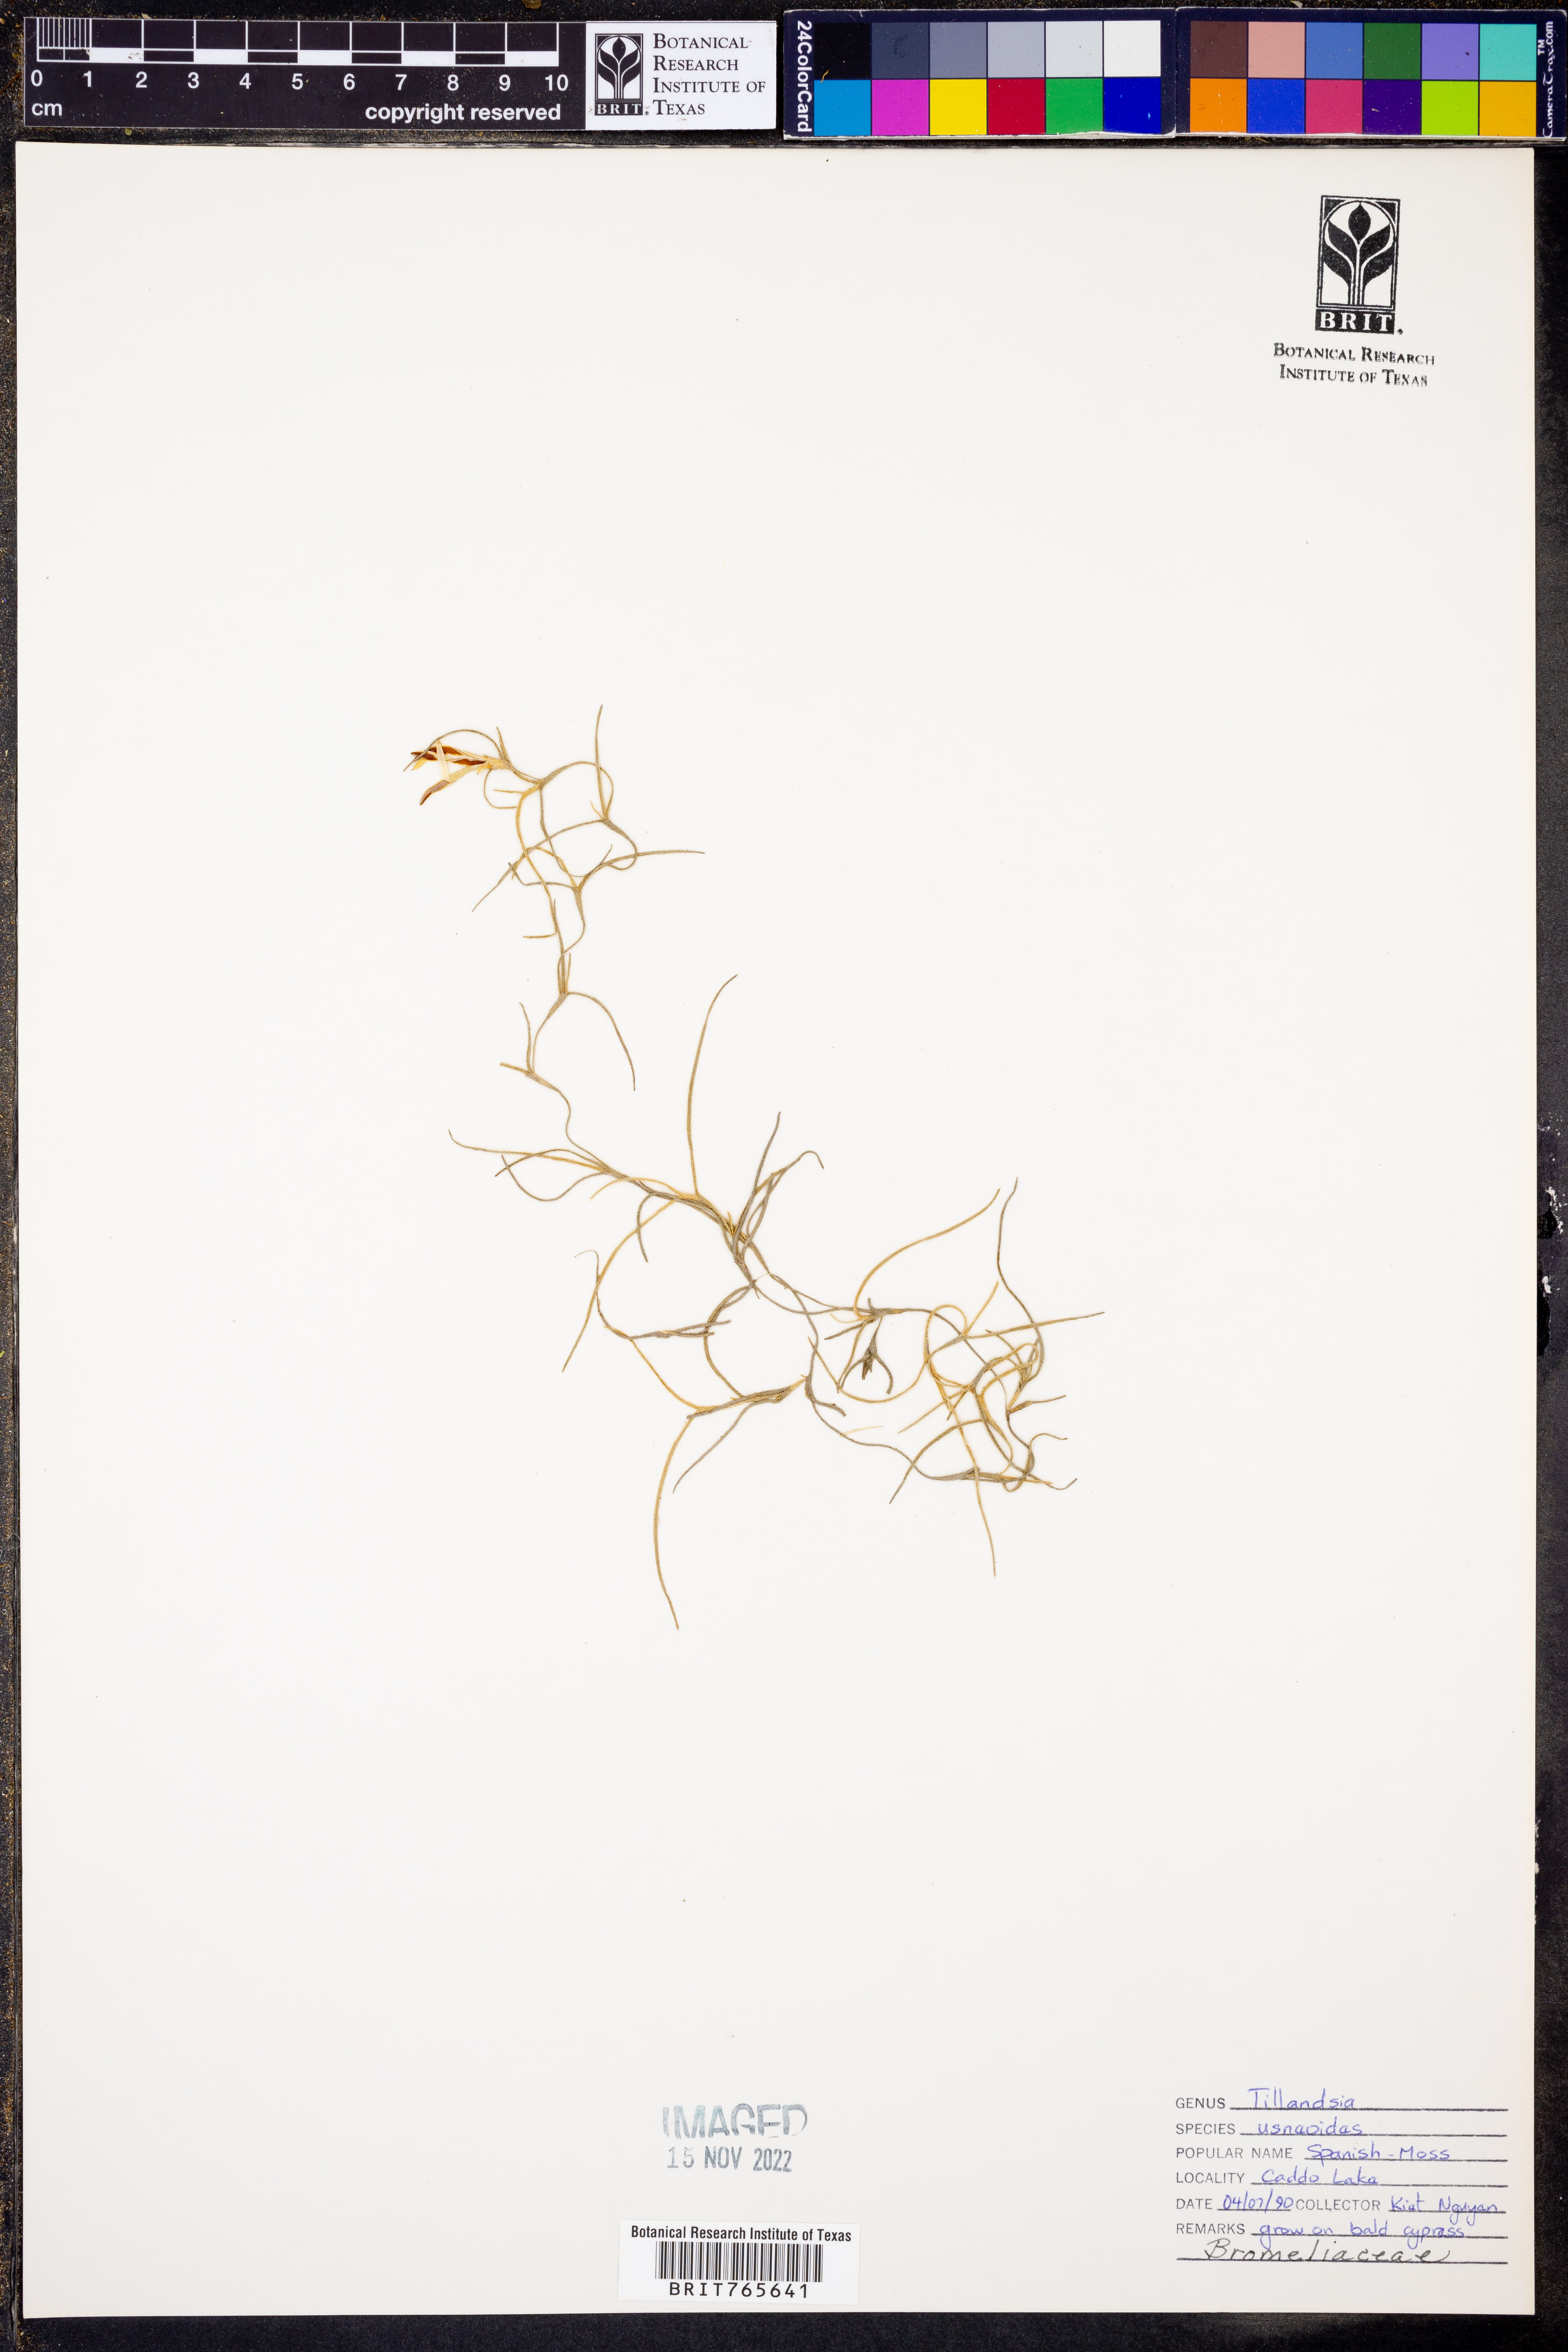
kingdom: Plantae
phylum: Tracheophyta
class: Liliopsida
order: Poales
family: Bromeliaceae
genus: Tillandsia
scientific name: Tillandsia usneoides
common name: Spanish moss
